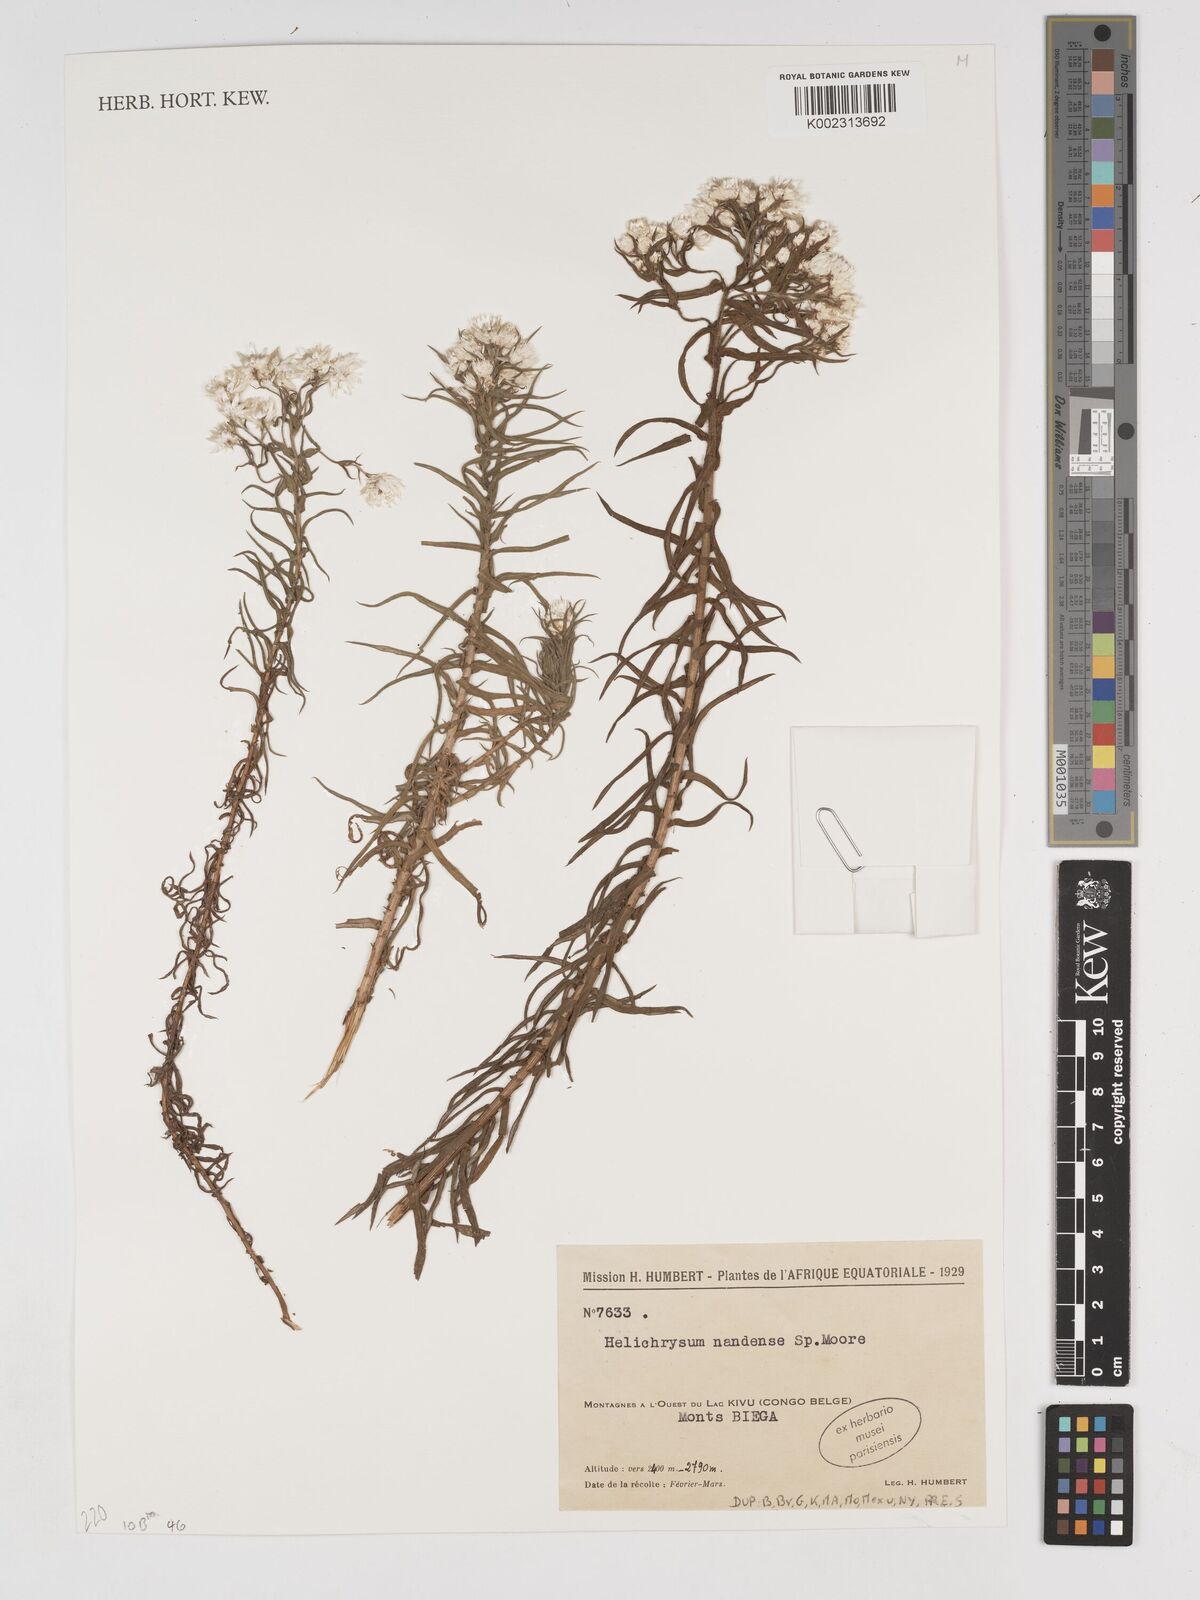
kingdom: Plantae
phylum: Tracheophyta
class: Magnoliopsida
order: Asterales
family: Asteraceae
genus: Helichrysum
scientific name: Helichrysum argyranthum
